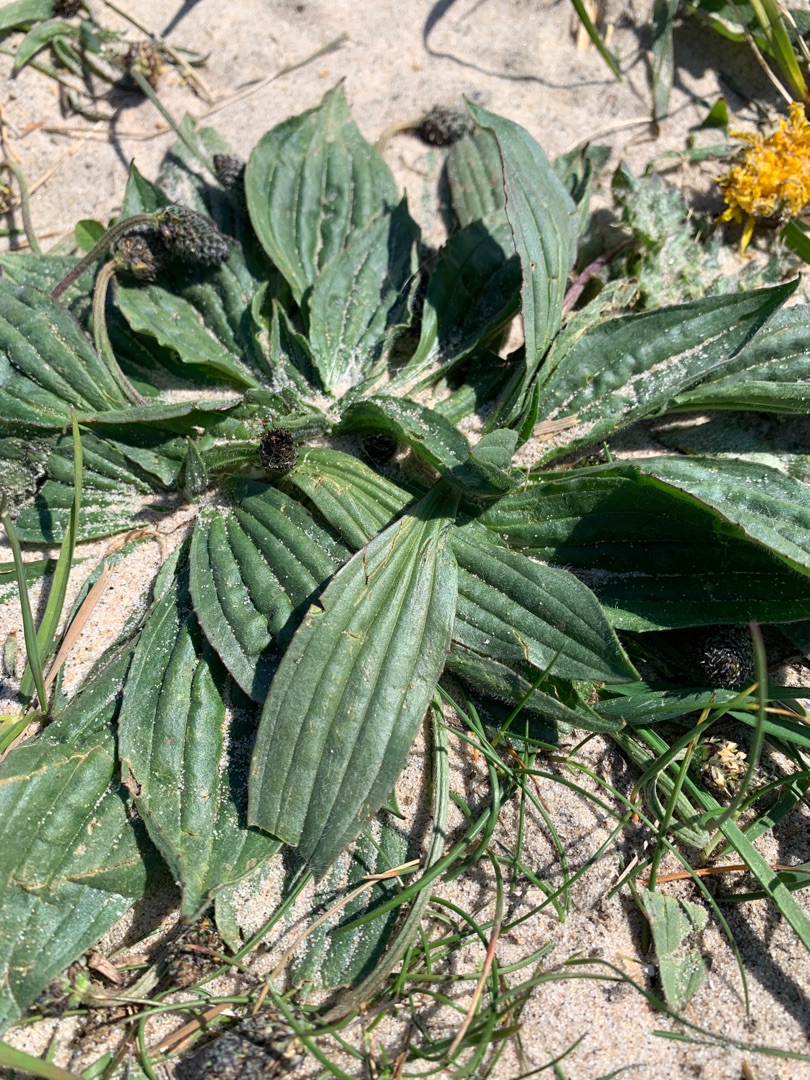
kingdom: Plantae
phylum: Tracheophyta
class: Magnoliopsida
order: Lamiales
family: Plantaginaceae
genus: Plantago
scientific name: Plantago lanceolata
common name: Lancet-vejbred
